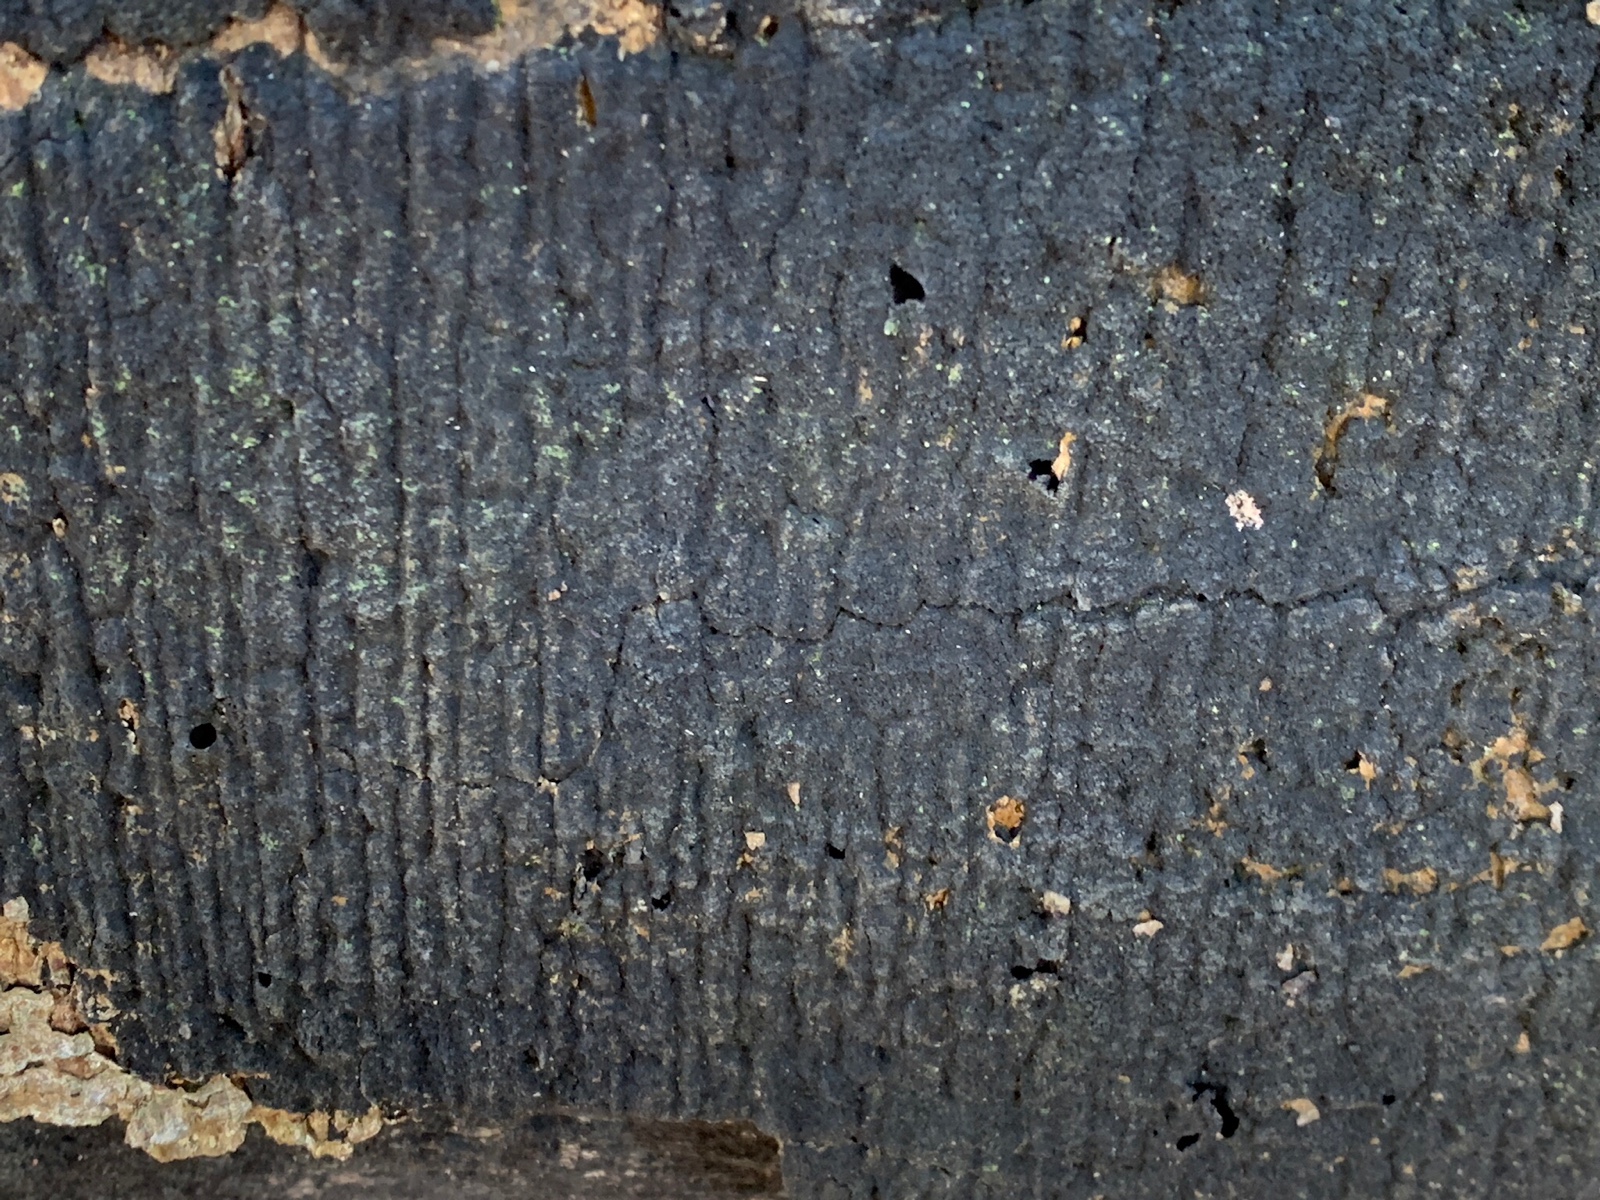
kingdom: Fungi
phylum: Ascomycota
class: Sordariomycetes
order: Xylariales
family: Diatrypaceae
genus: Eutypa
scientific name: Eutypa spinosa
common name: grov kulskorpe
